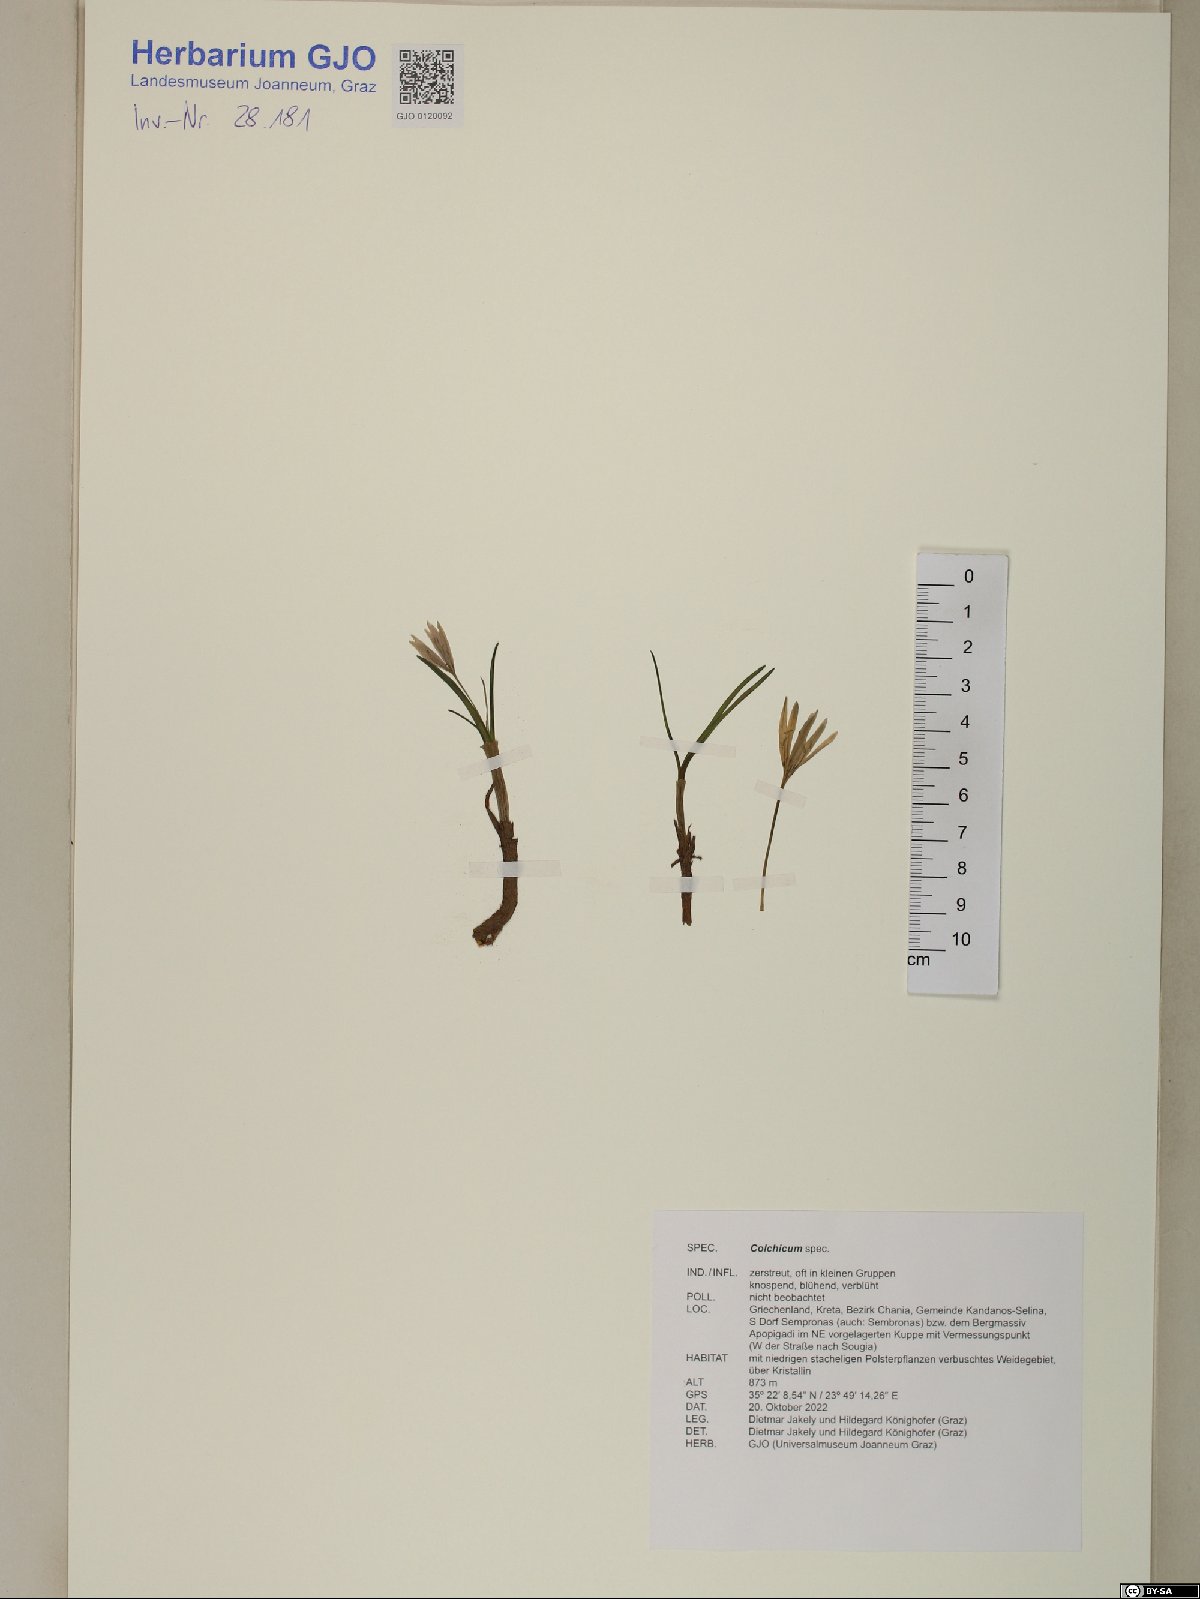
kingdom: Plantae
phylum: Tracheophyta
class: Liliopsida
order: Liliales
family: Colchicaceae
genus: Colchicum
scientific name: Colchicum
